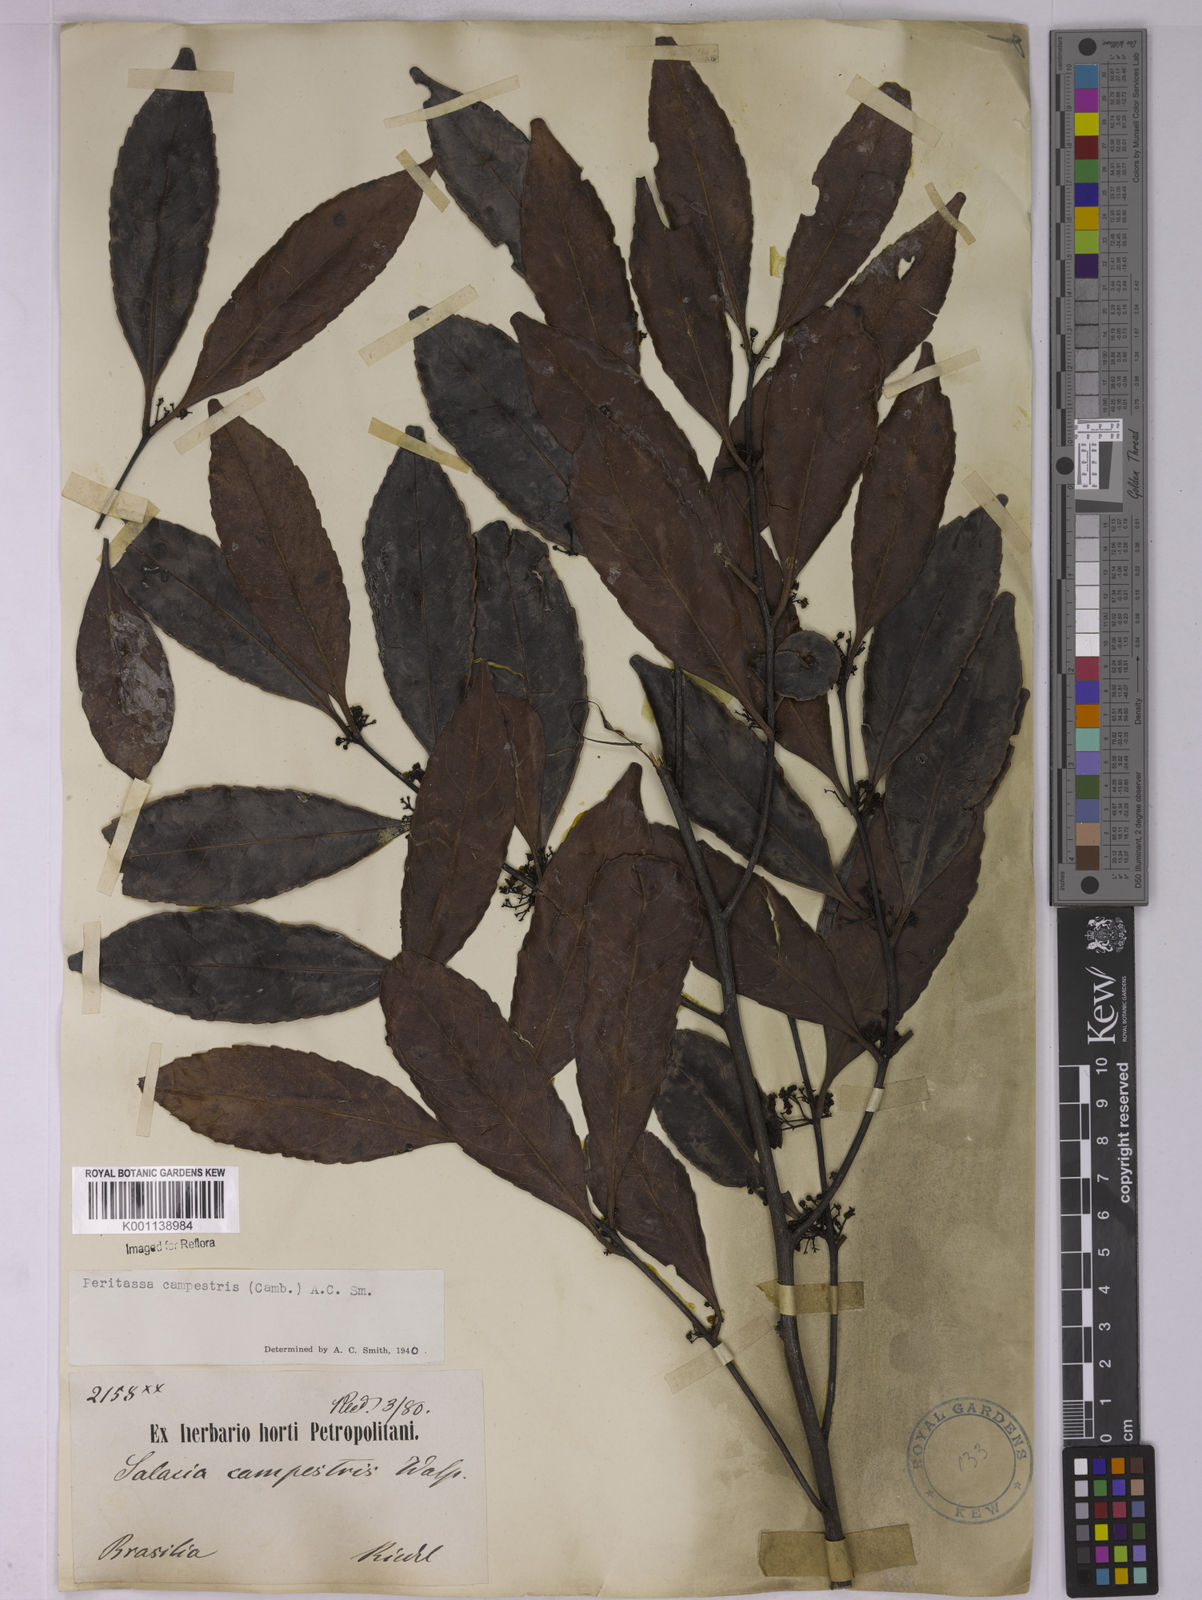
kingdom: Plantae
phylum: Tracheophyta
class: Magnoliopsida
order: Celastrales
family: Celastraceae
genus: Peritassa
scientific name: Peritassa campestris
